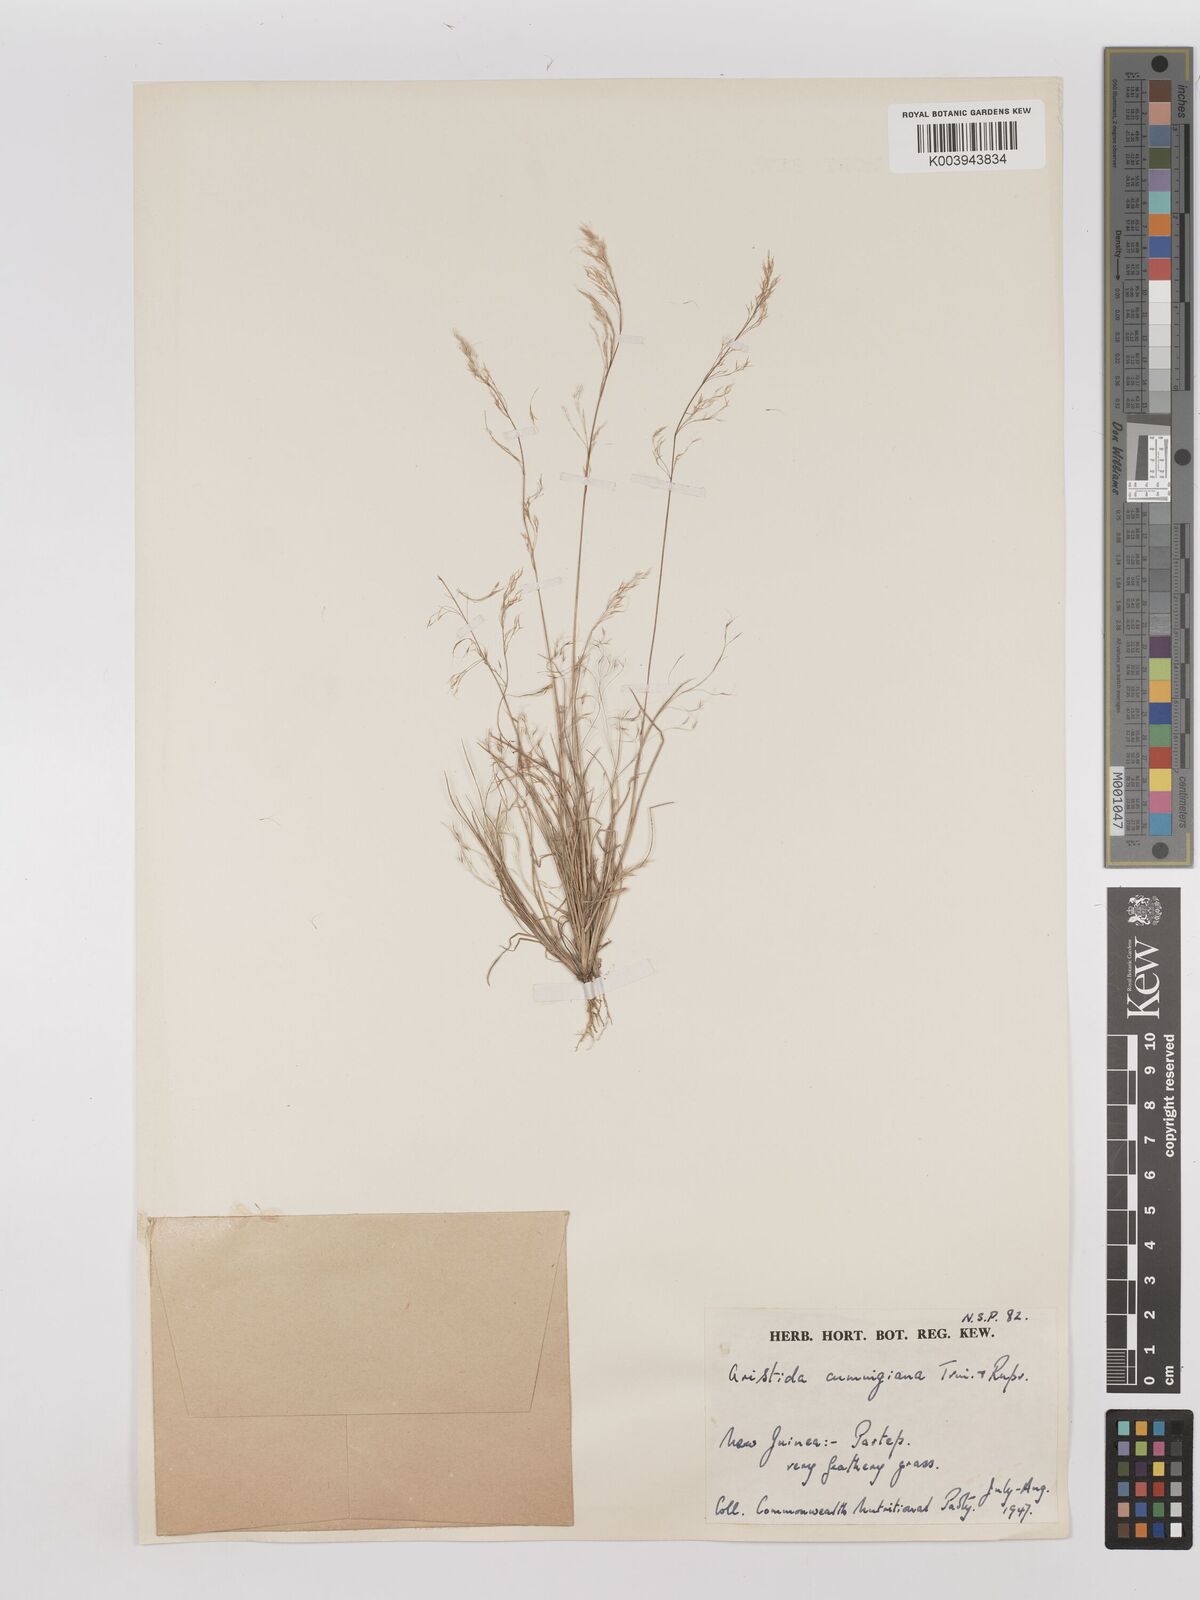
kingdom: Plantae
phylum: Tracheophyta
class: Liliopsida
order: Poales
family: Poaceae
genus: Aristida
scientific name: Aristida cumingiana
